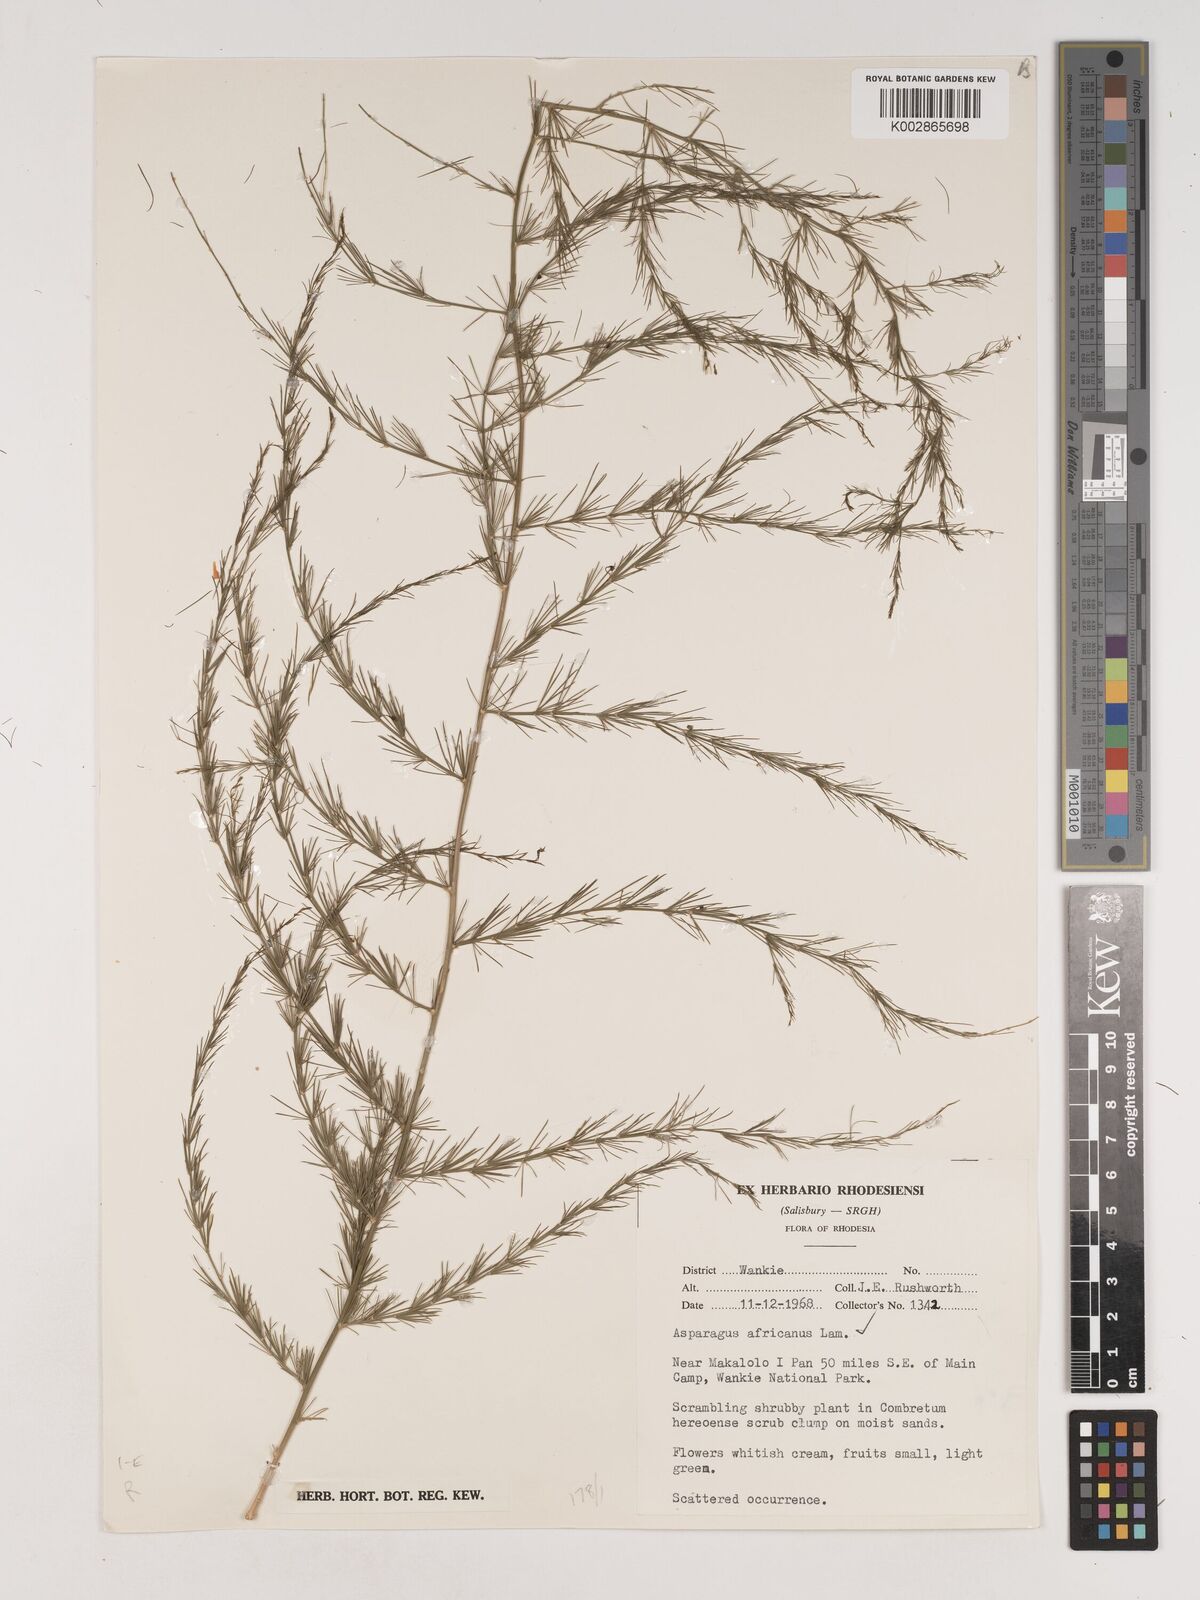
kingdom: Plantae
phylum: Tracheophyta
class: Liliopsida
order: Asparagales
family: Asparagaceae
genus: Asparagus
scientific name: Asparagus africanus
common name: Asparagus-fern
